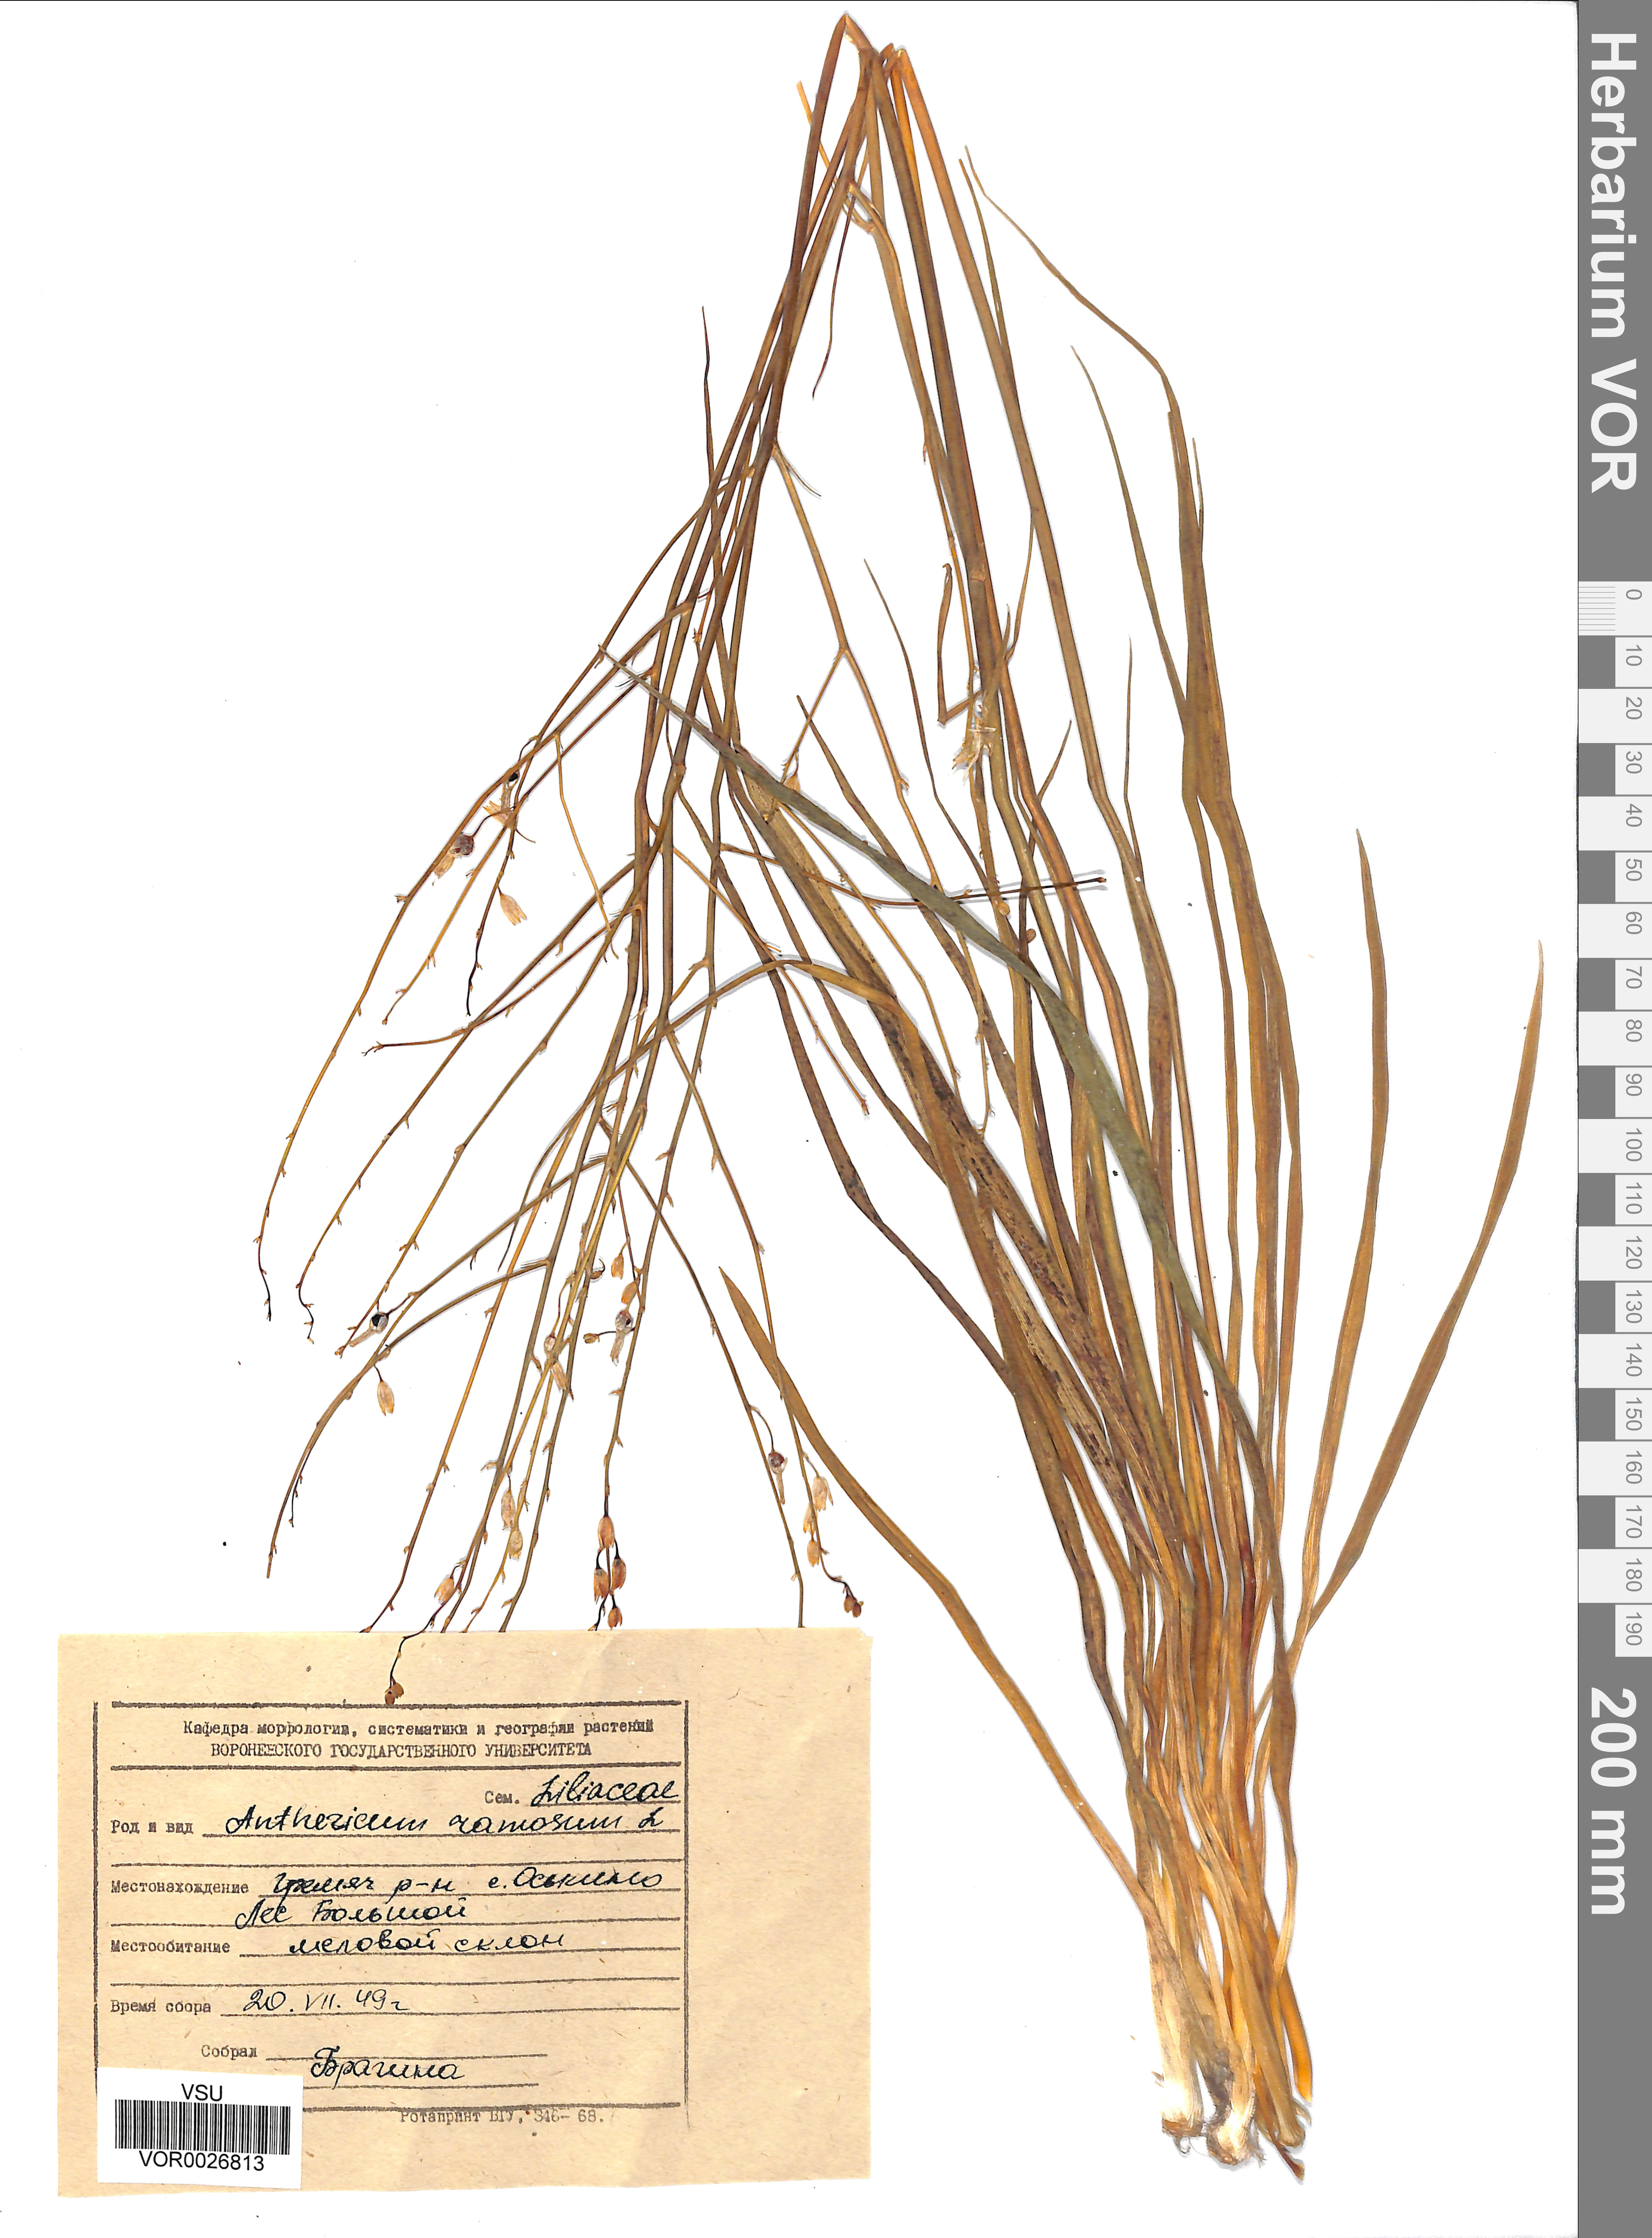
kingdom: Plantae
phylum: Tracheophyta
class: Liliopsida
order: Asparagales
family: Asparagaceae
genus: Anthericum
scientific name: Anthericum ramosum
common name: Branched st. bernard's-lily
